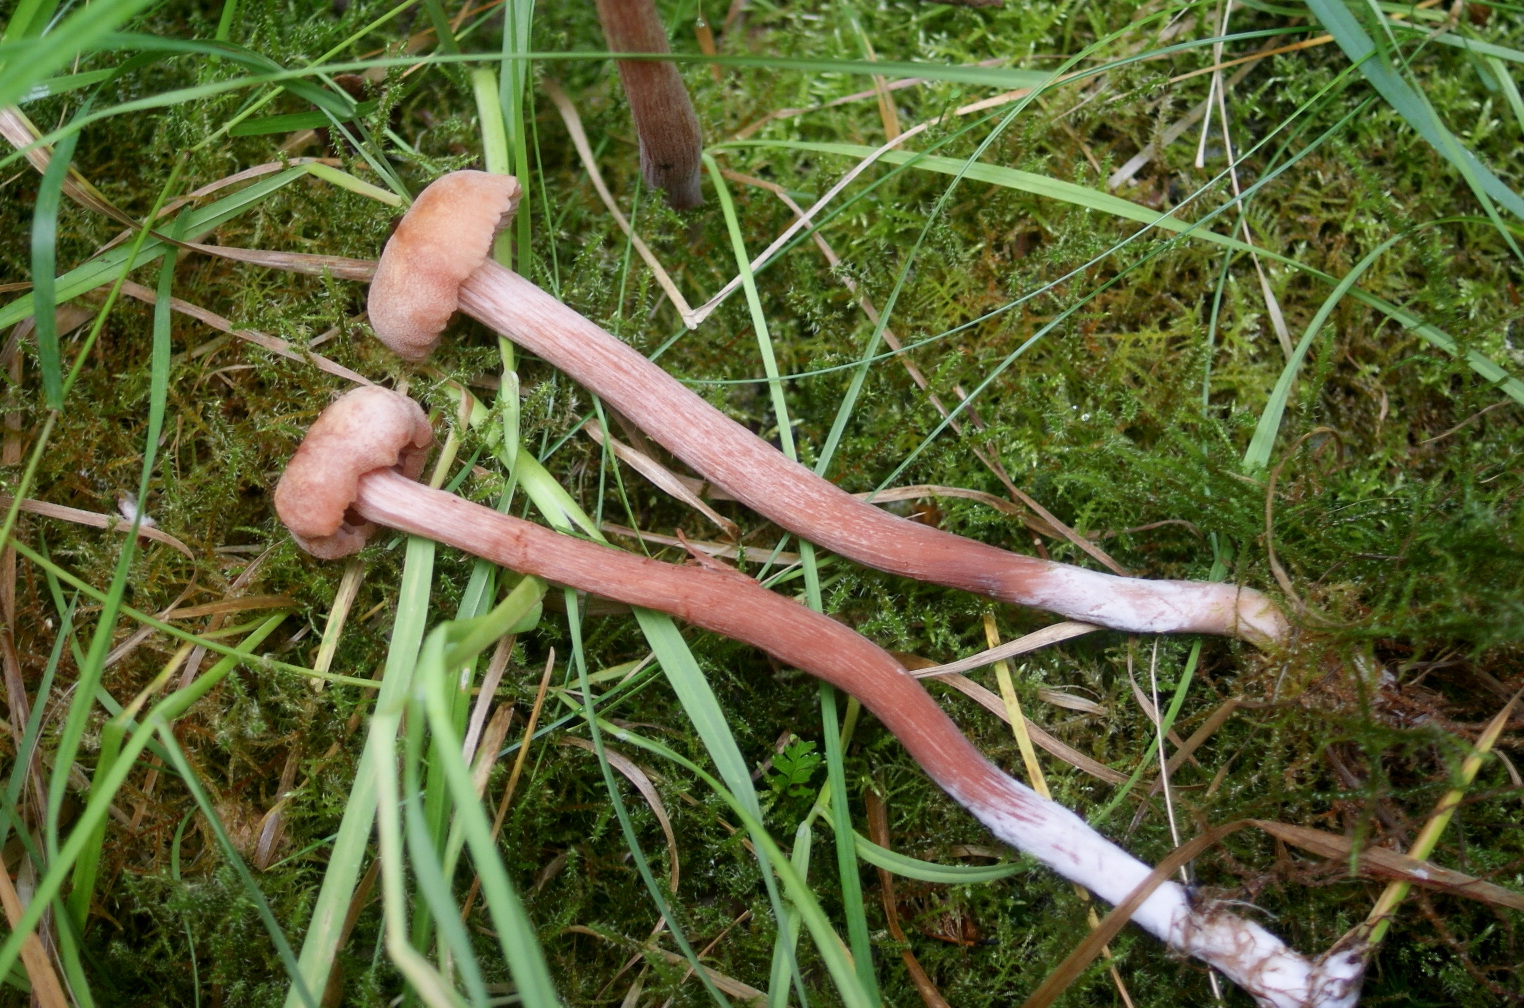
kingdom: Fungi
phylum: Basidiomycota
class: Agaricomycetes
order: Agaricales
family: Hydnangiaceae
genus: Laccaria
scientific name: Laccaria proxima
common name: stor ametysthat
